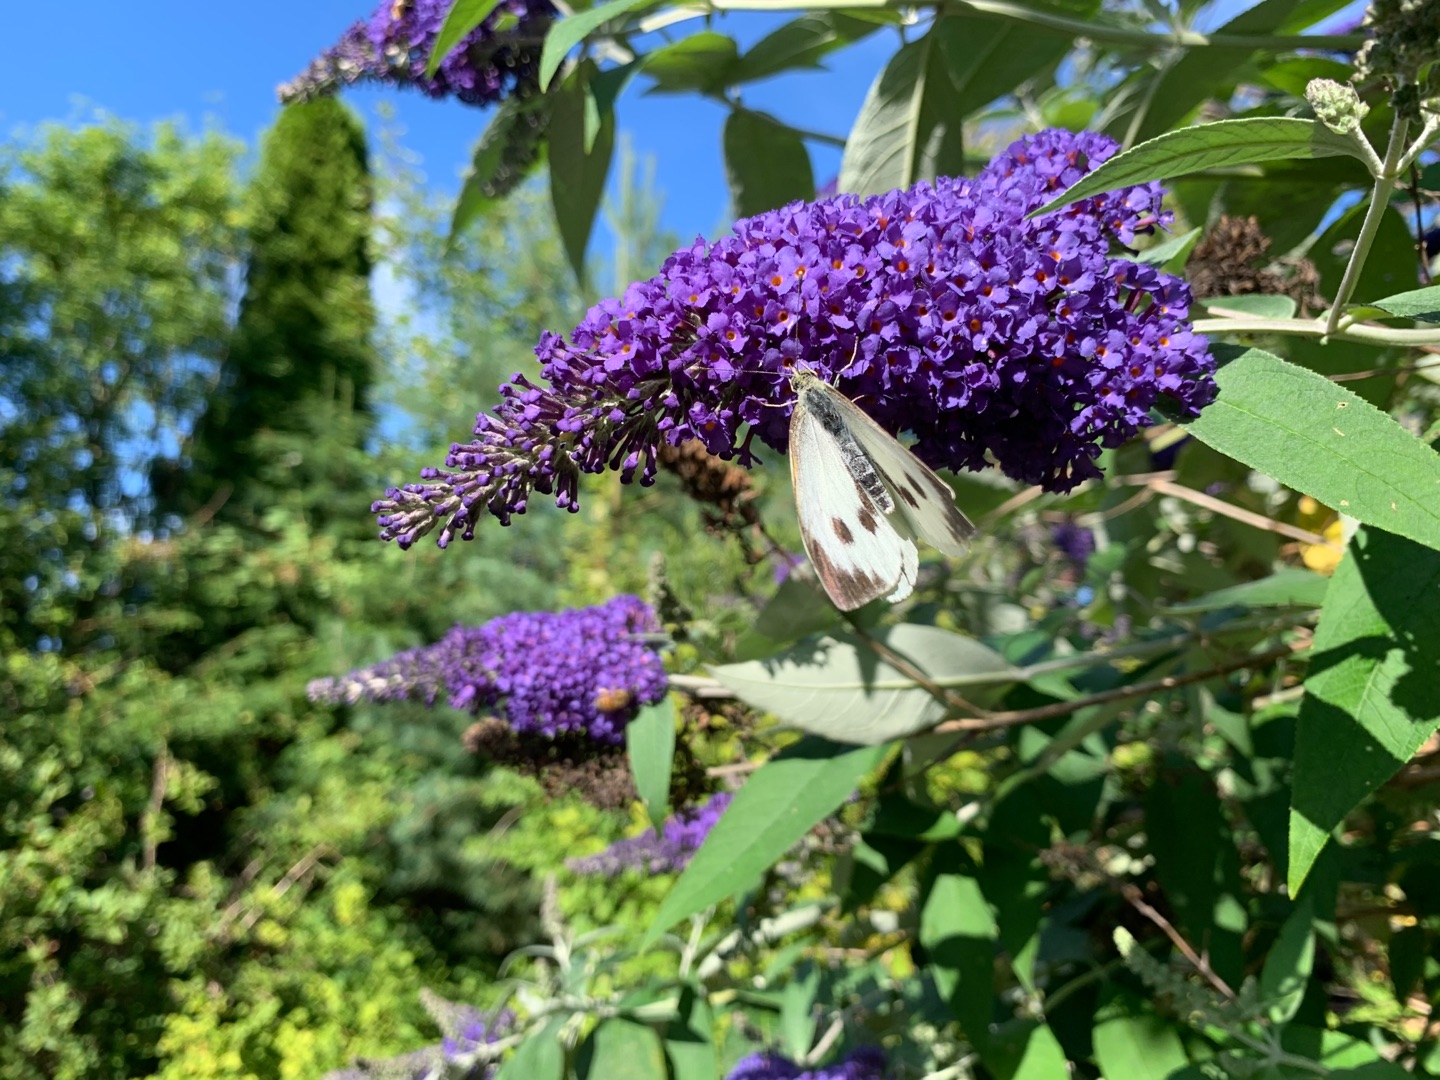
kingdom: Animalia
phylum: Arthropoda
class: Insecta
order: Lepidoptera
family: Pieridae
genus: Pieris
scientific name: Pieris brassicae
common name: Stor kålsommerfugl
